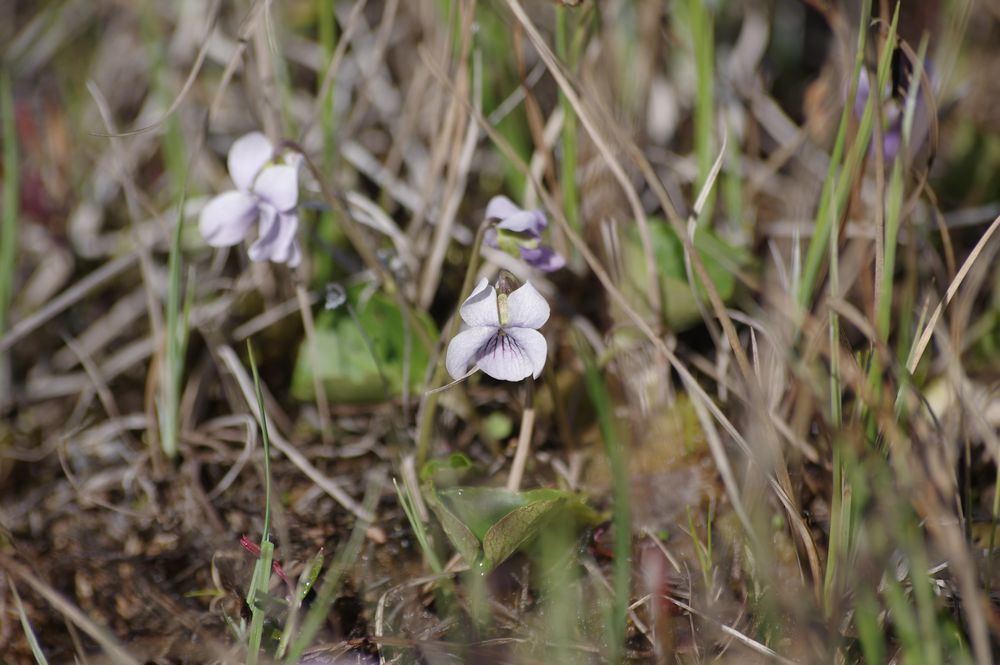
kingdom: Plantae
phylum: Tracheophyta
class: Magnoliopsida
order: Malpighiales
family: Violaceae
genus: Viola
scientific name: Viola palustris
